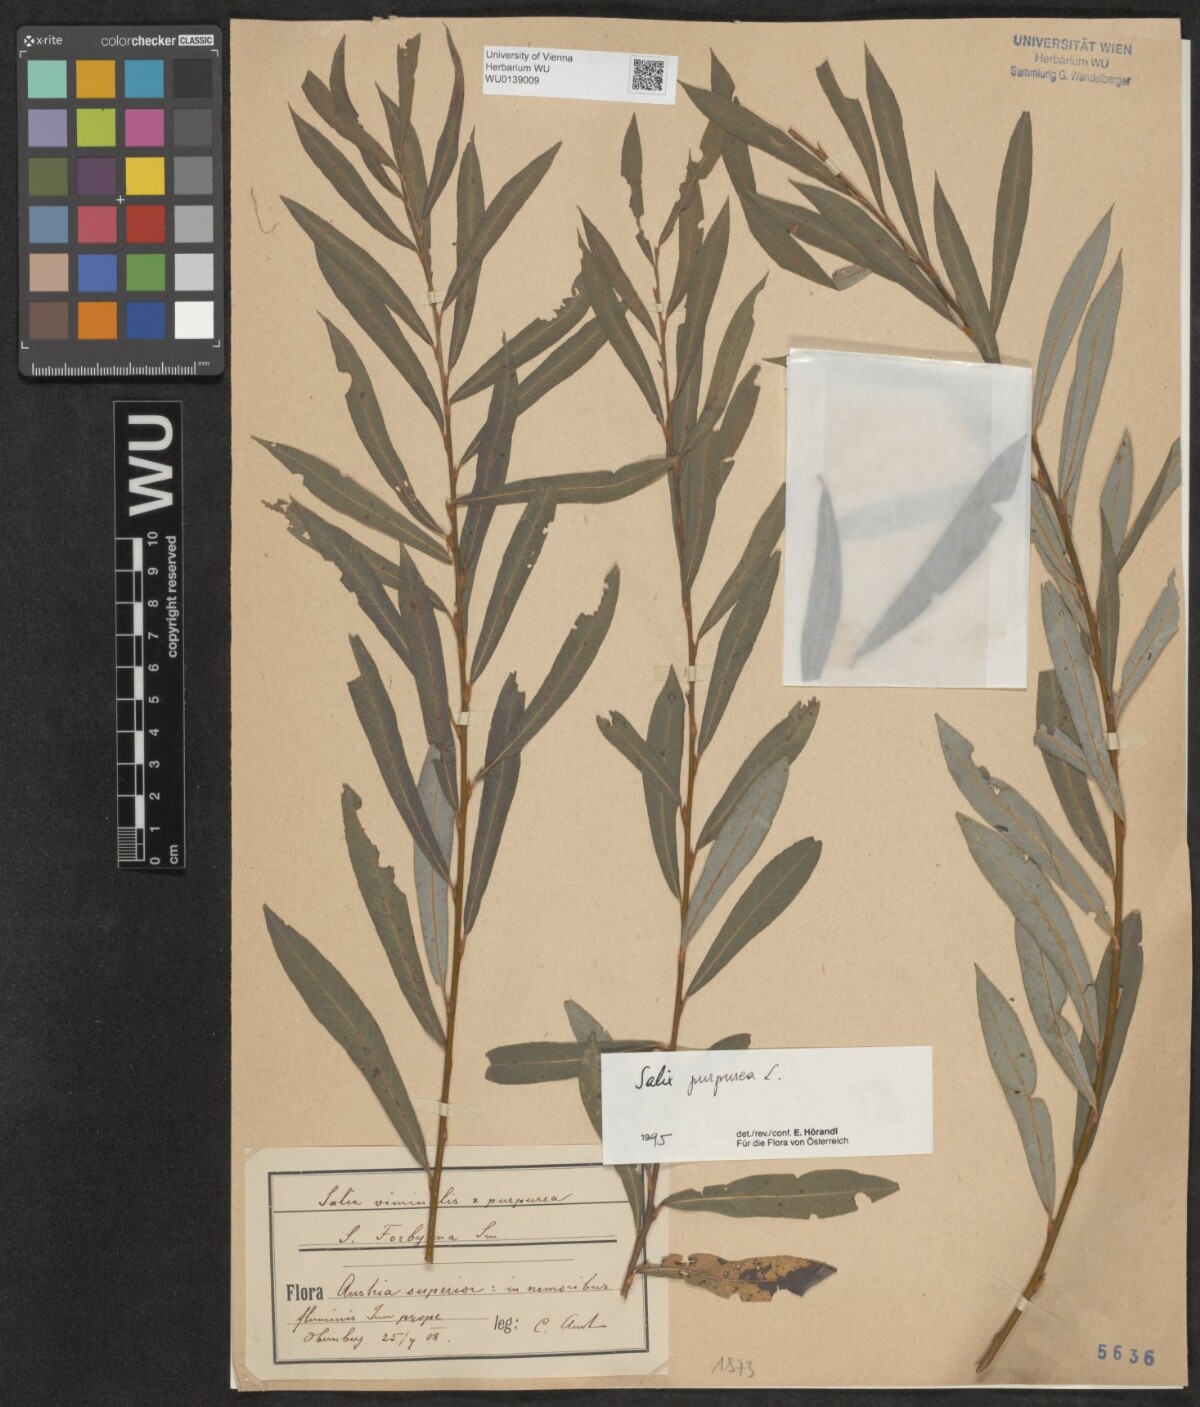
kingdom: Plantae
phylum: Tracheophyta
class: Magnoliopsida
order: Malpighiales
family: Salicaceae
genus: Salix
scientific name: Salix purpurea
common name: Purple willow
